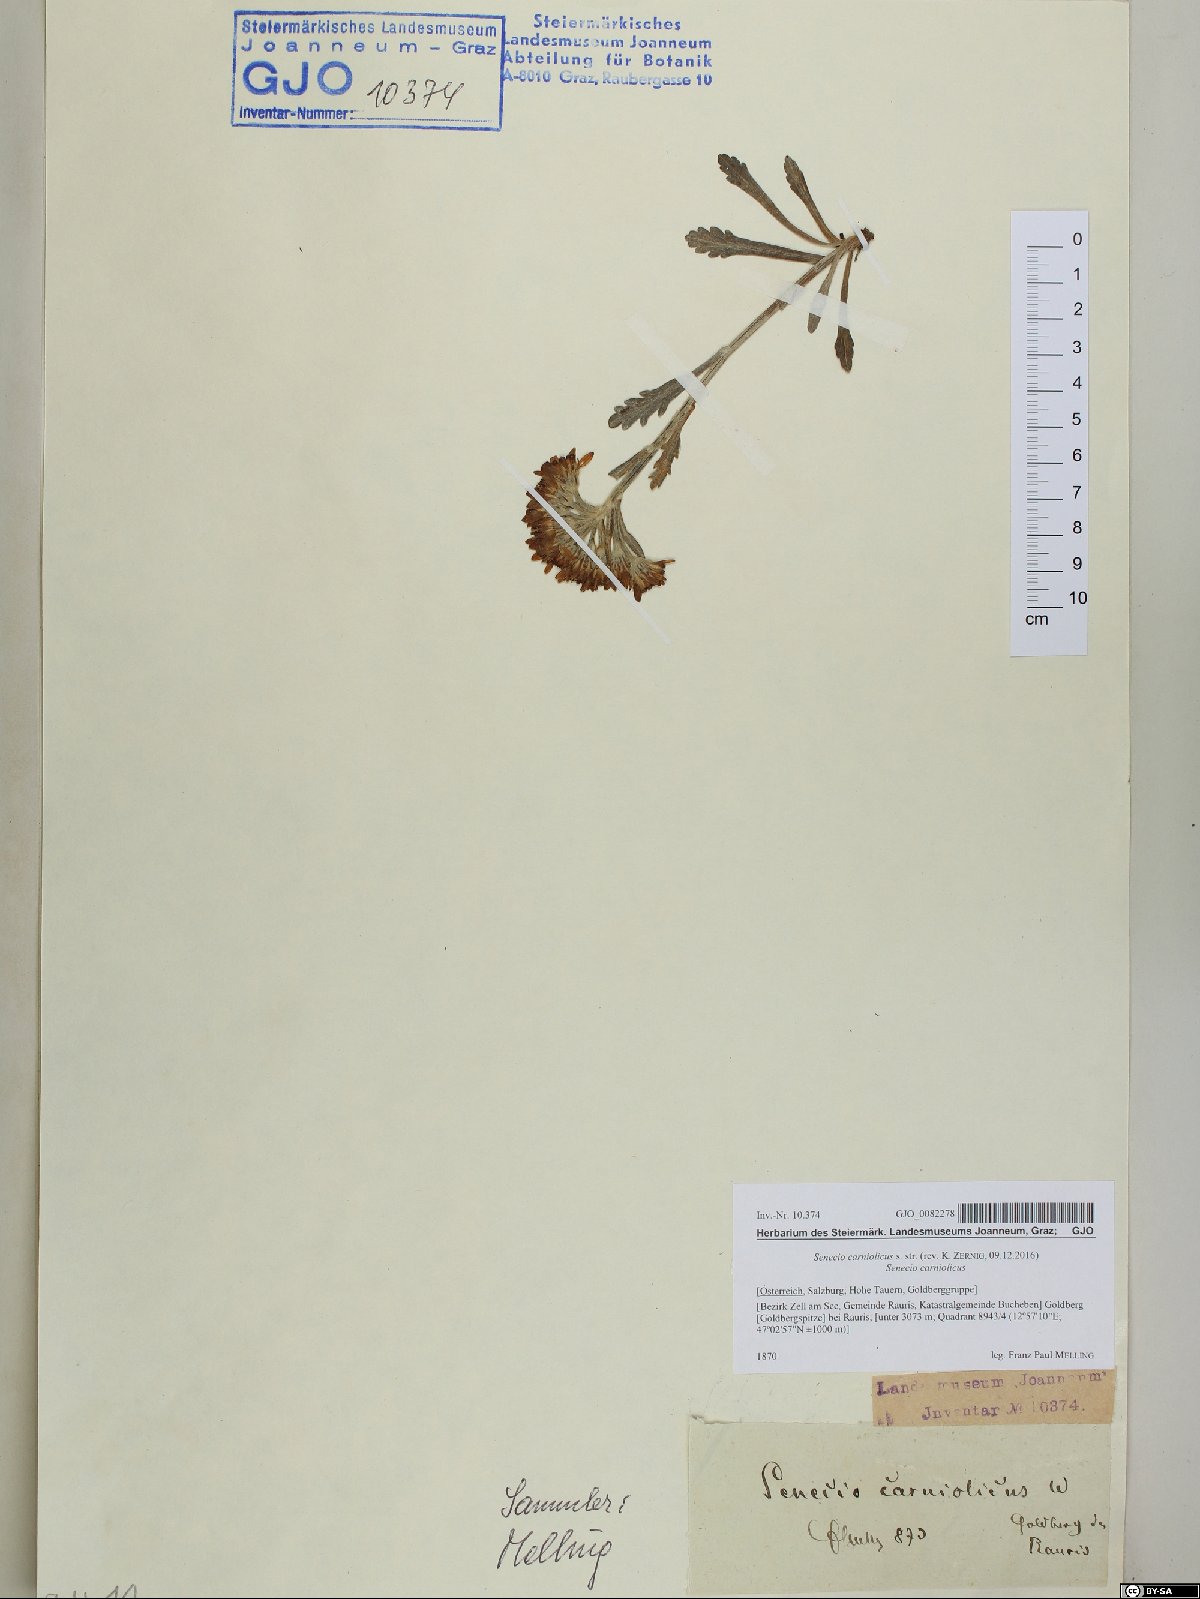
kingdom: Plantae
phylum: Tracheophyta
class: Magnoliopsida
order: Asterales
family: Asteraceae
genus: Jacobaea
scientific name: Jacobaea carniolica
